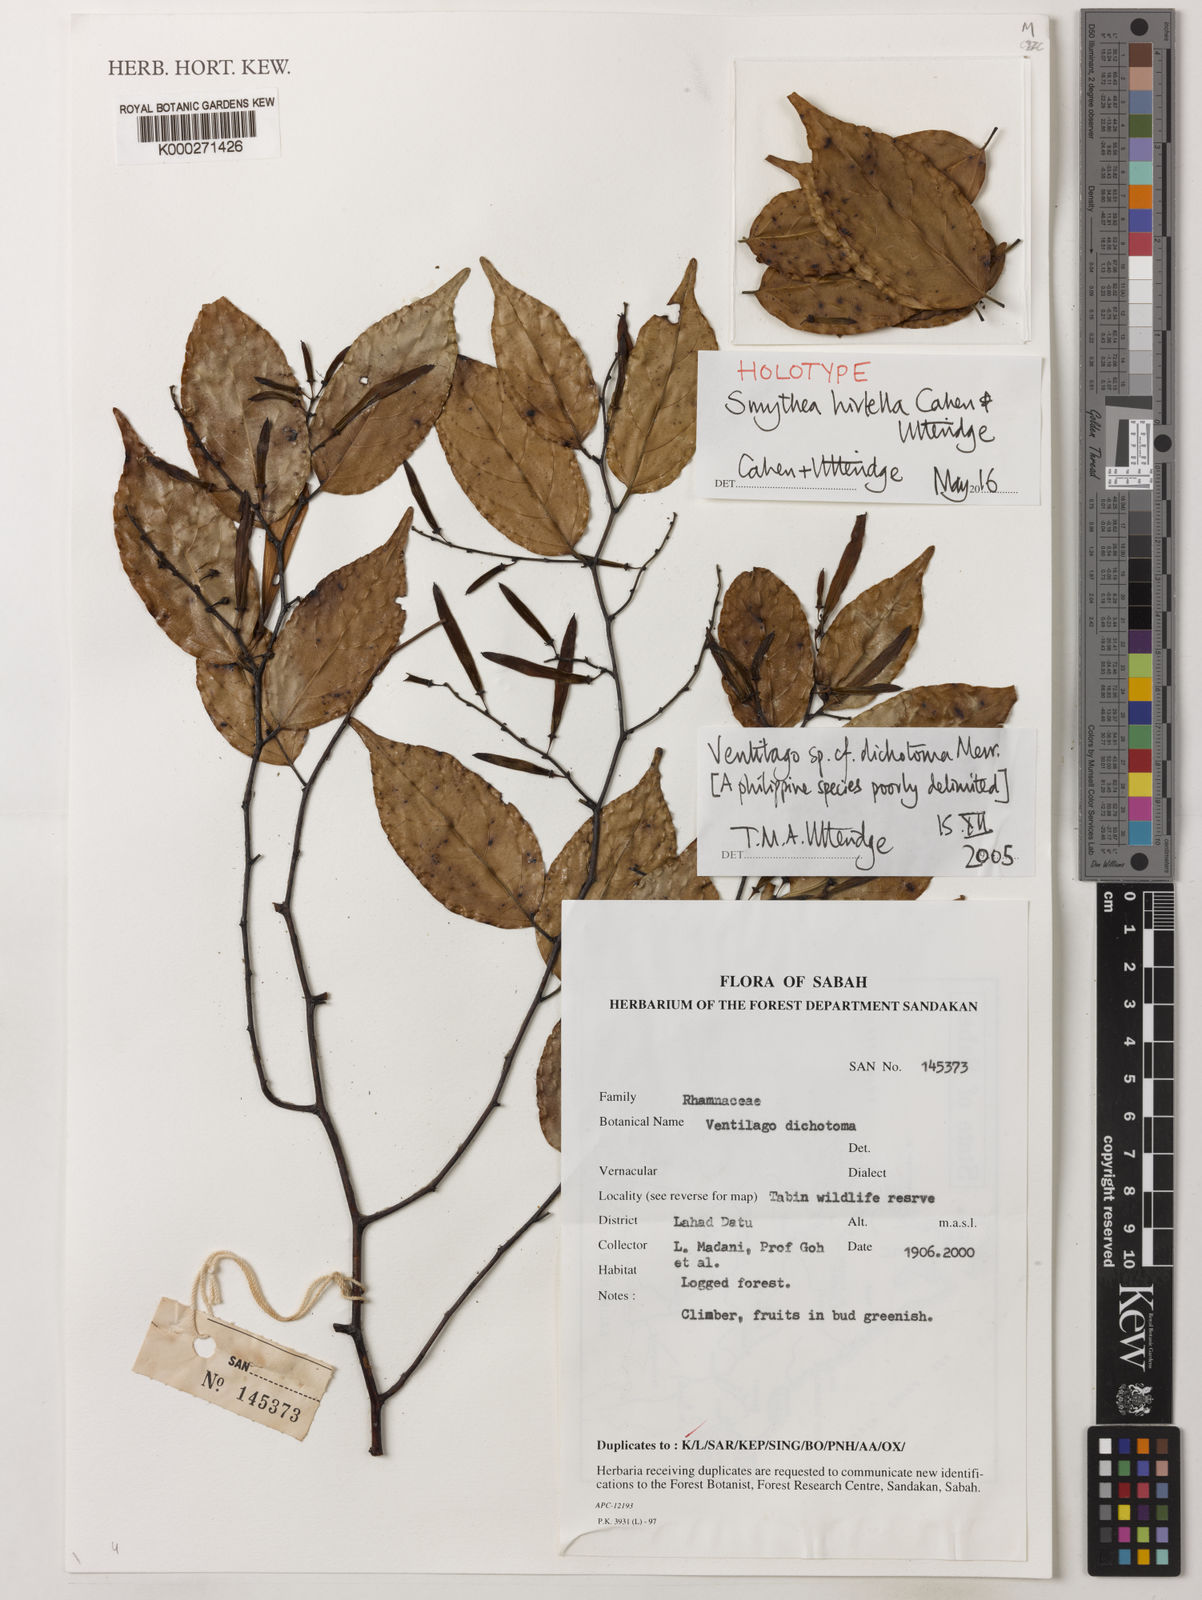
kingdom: Plantae
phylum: Tracheophyta
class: Magnoliopsida
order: Rosales
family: Rhamnaceae
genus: Ventilago
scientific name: Ventilago
